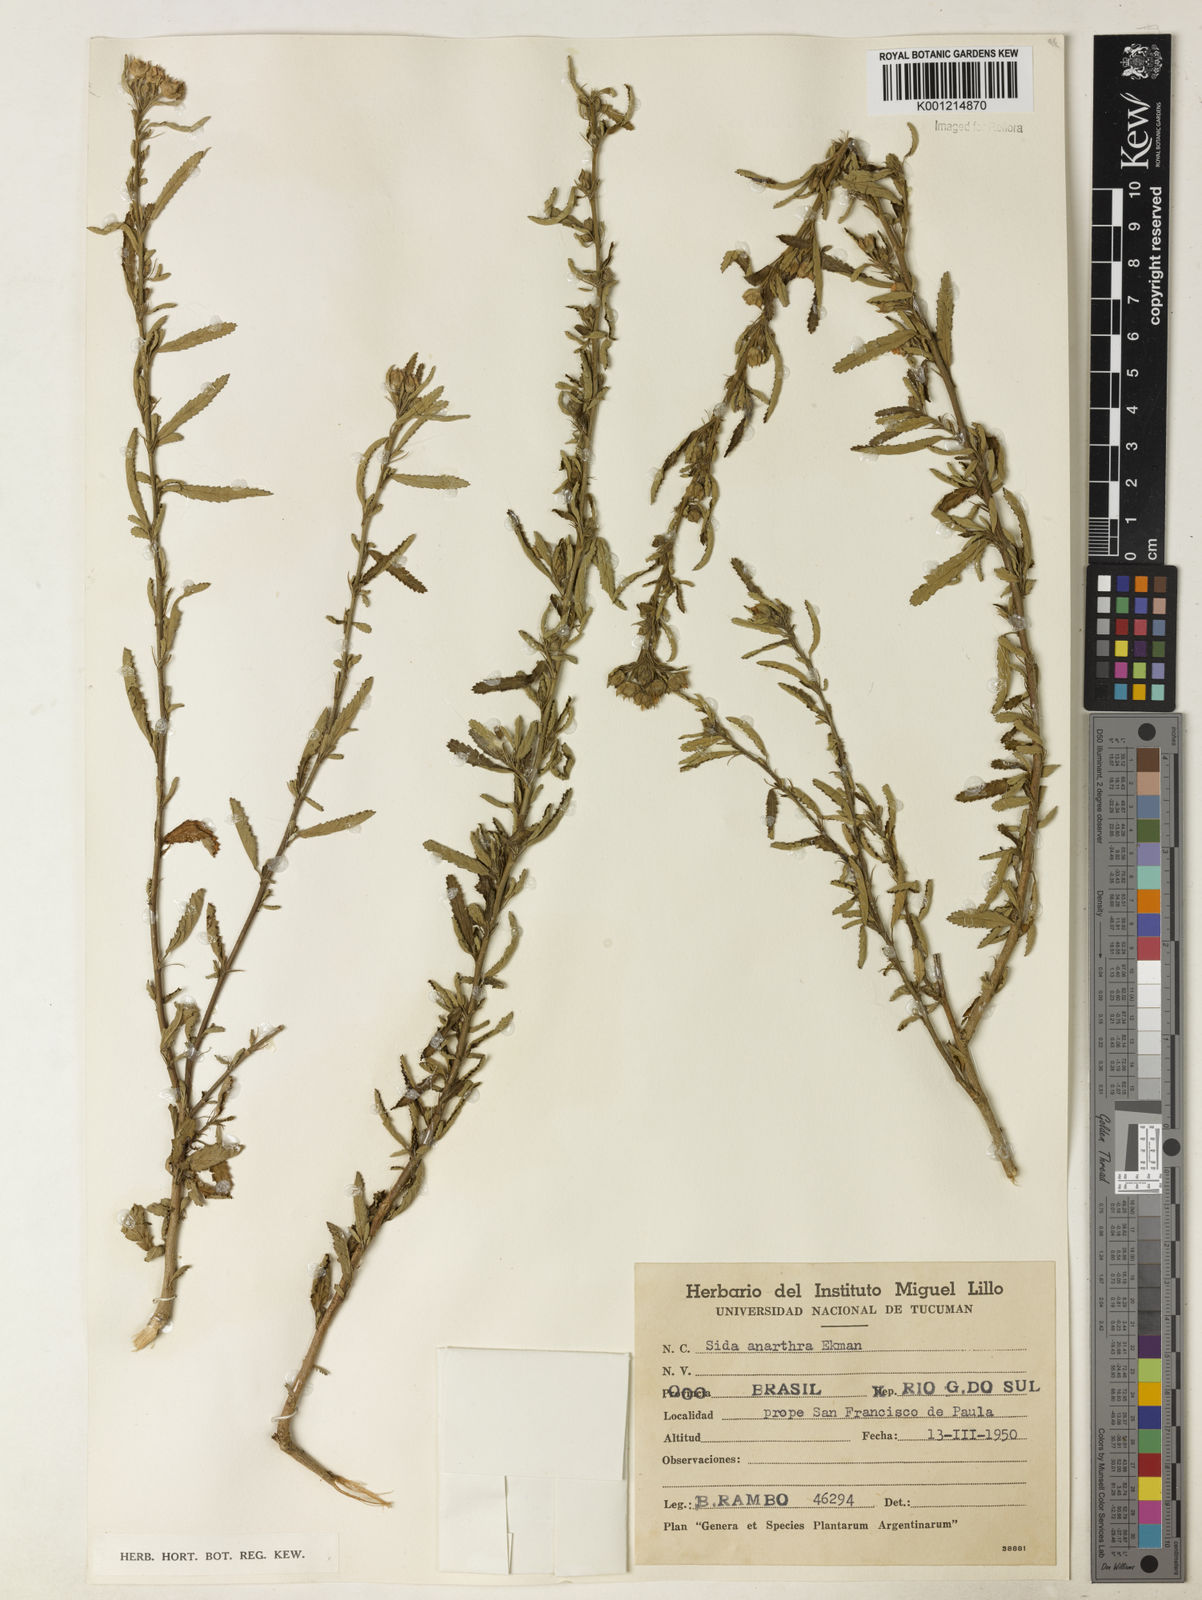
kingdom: Plantae
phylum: Tracheophyta
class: Magnoliopsida
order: Malvales
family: Malvaceae
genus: Sida
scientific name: Sida potentilloides
